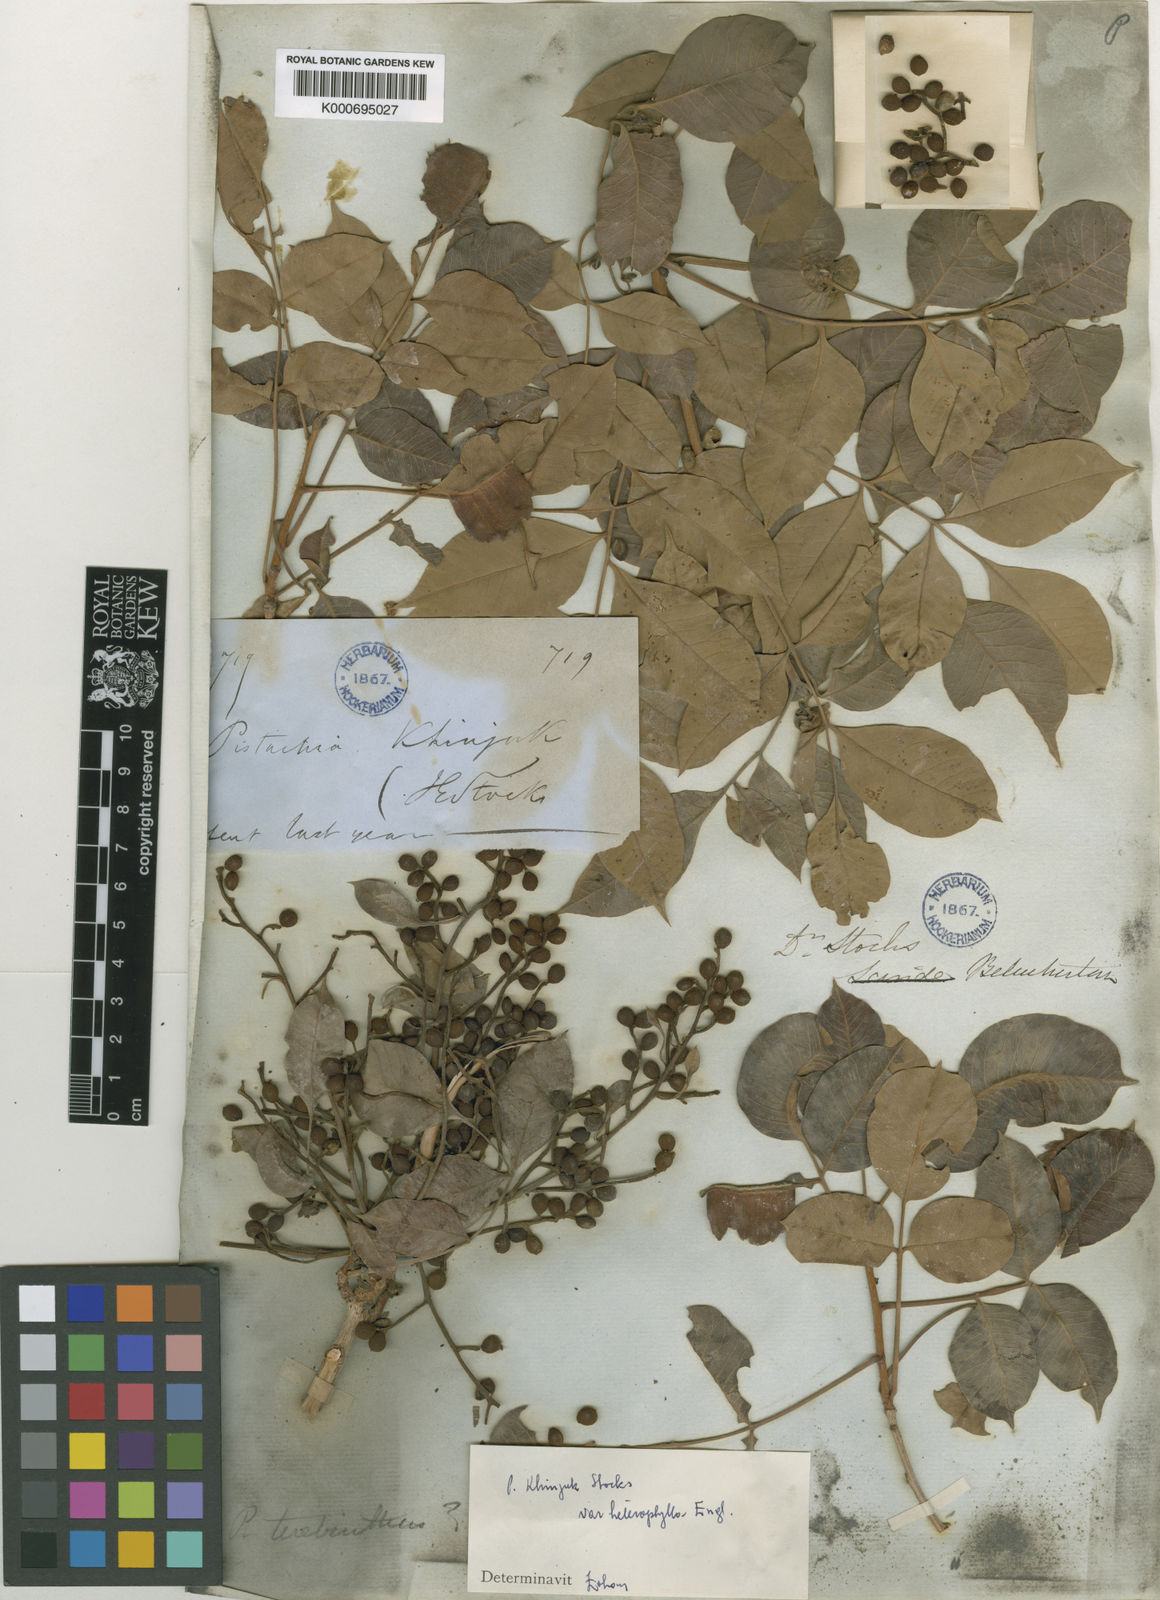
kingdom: Plantae
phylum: Tracheophyta
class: Magnoliopsida
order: Sapindales
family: Anacardiaceae
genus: Pistacia
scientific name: Pistacia khinjuk
